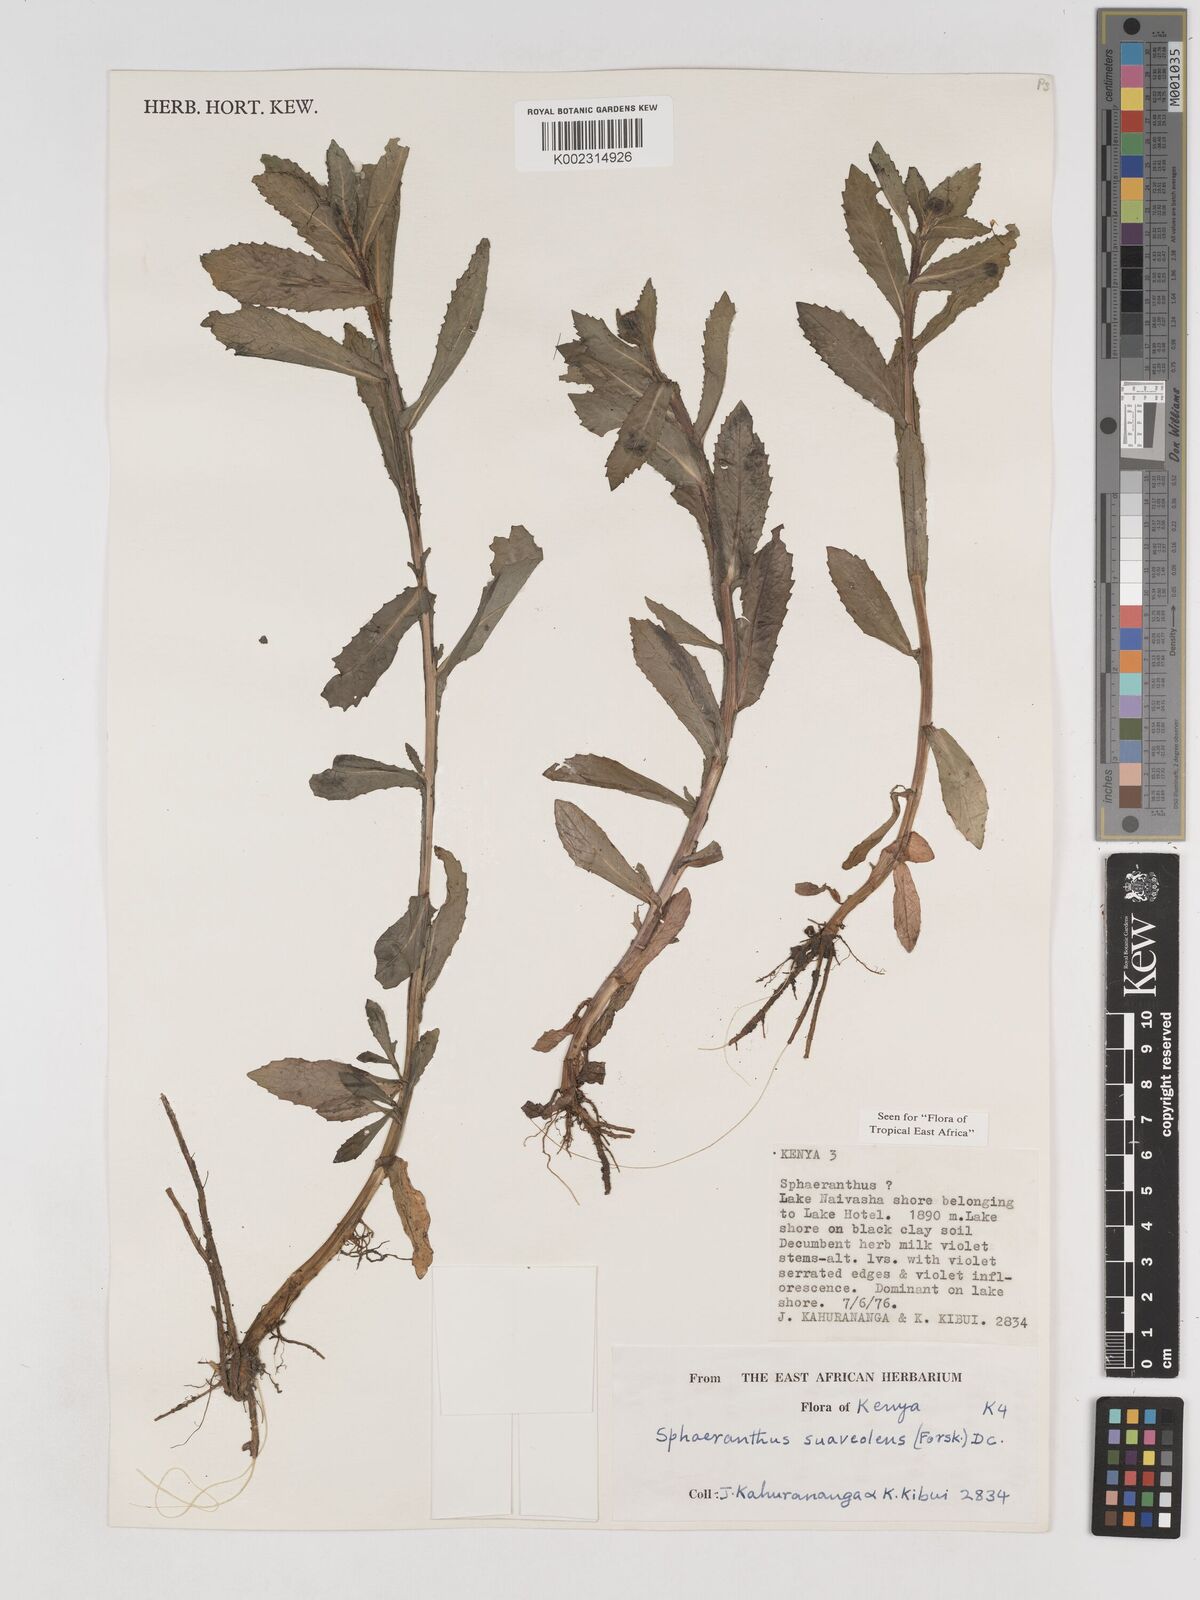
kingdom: Plantae
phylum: Tracheophyta
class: Magnoliopsida
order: Asterales
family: Asteraceae
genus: Sphaeranthus
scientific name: Sphaeranthus suaveolens
